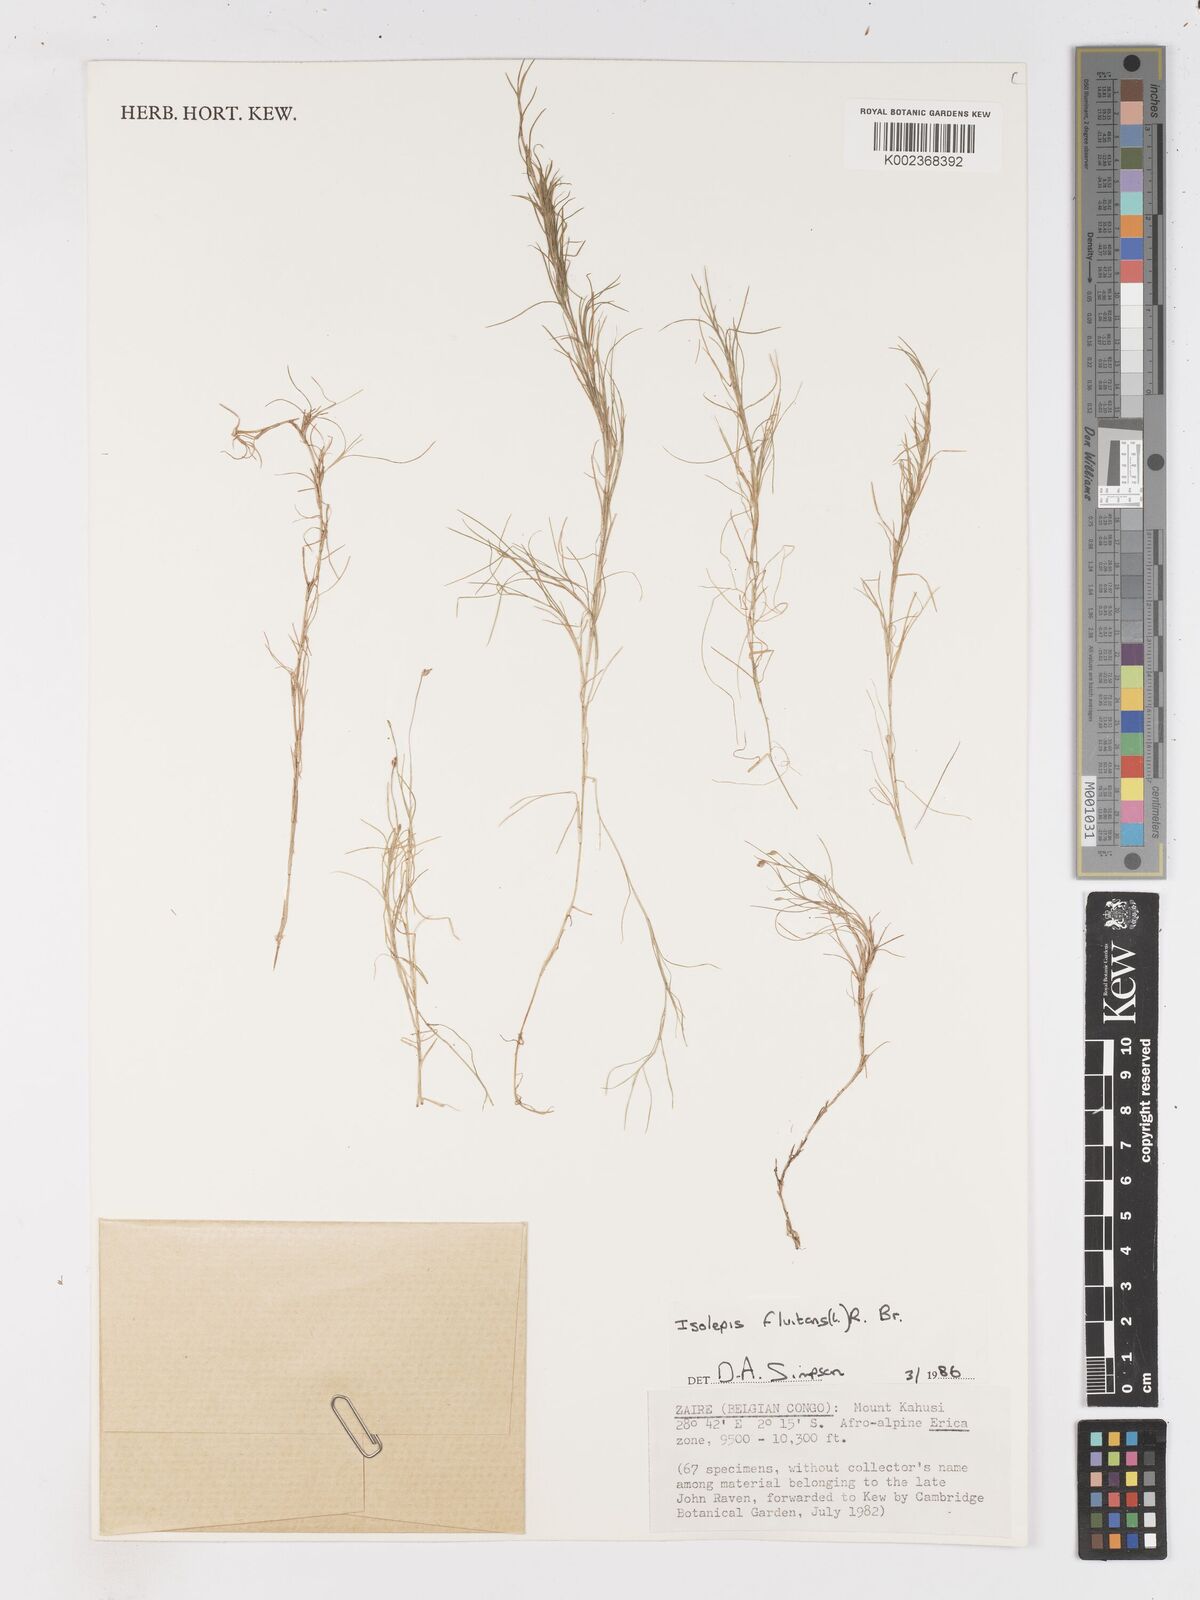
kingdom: Plantae
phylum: Tracheophyta
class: Liliopsida
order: Poales
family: Cyperaceae
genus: Isolepis
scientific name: Isolepis fluitans
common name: Floating club-rush
